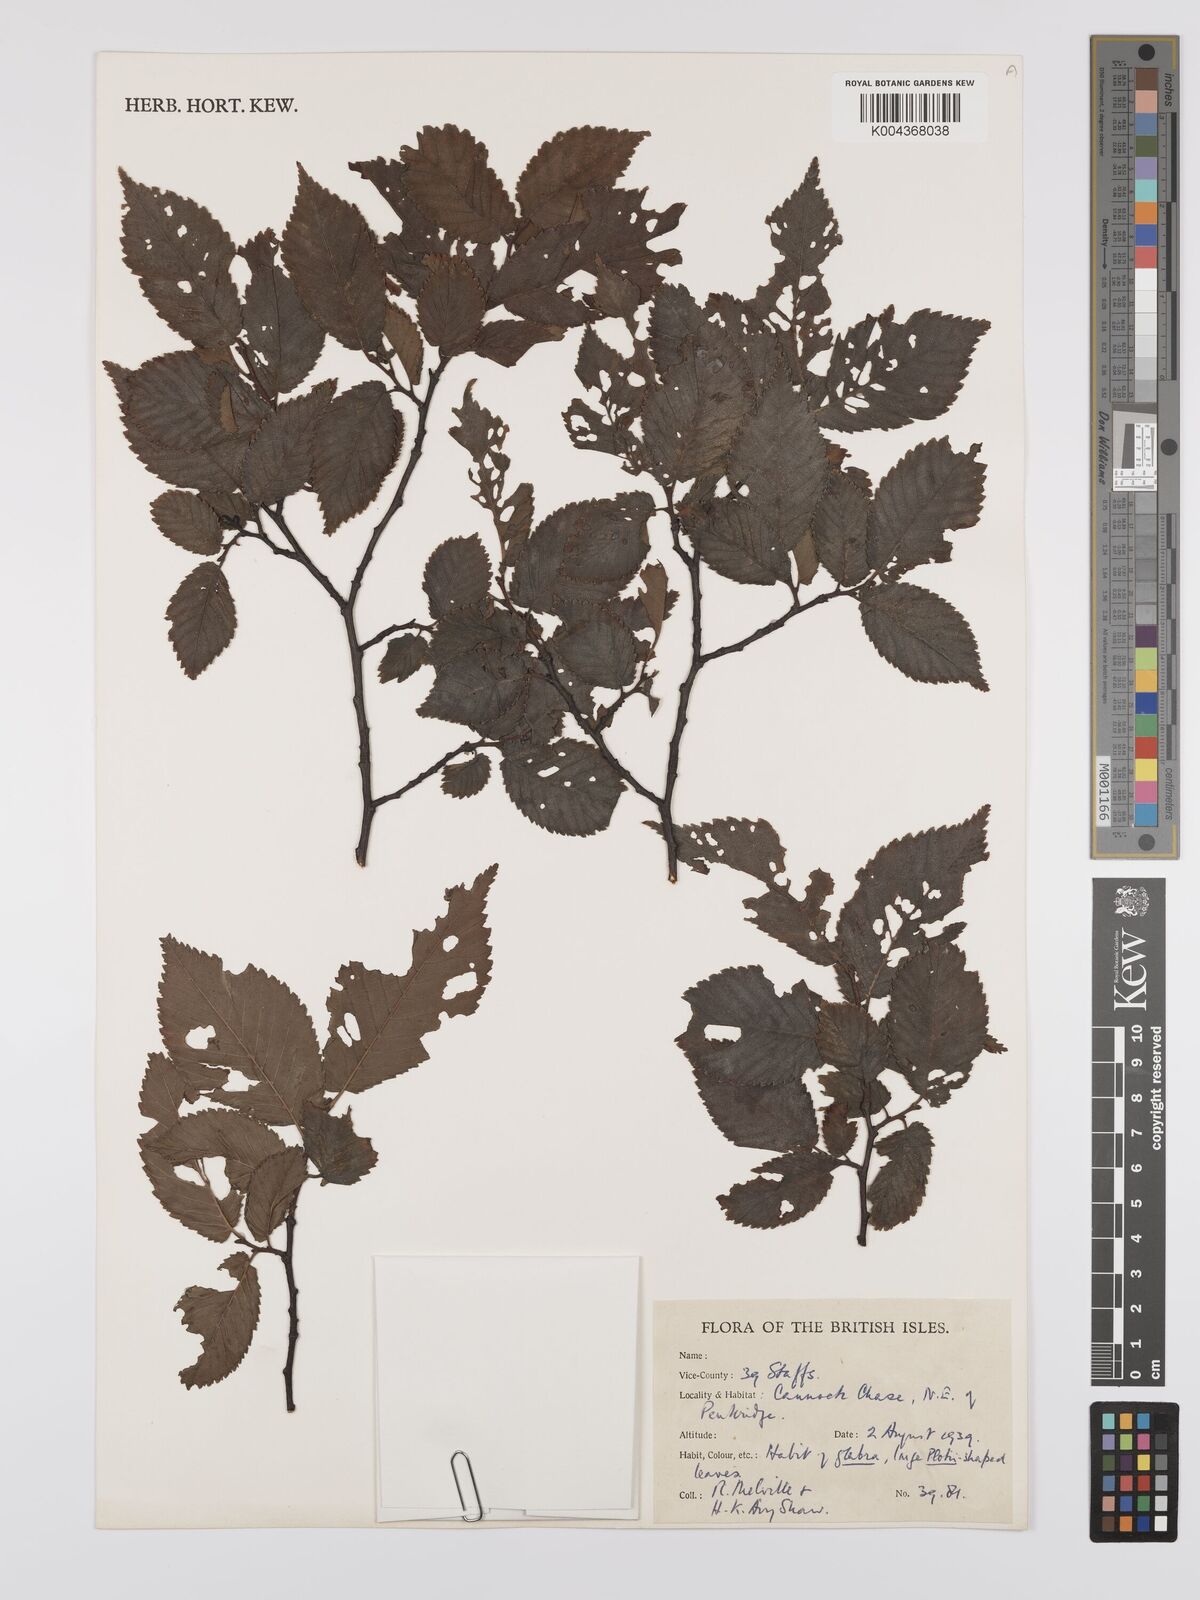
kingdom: Plantae
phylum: Tracheophyta
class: Magnoliopsida
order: Rosales
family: Ulmaceae
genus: Ulmus
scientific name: Ulmus
